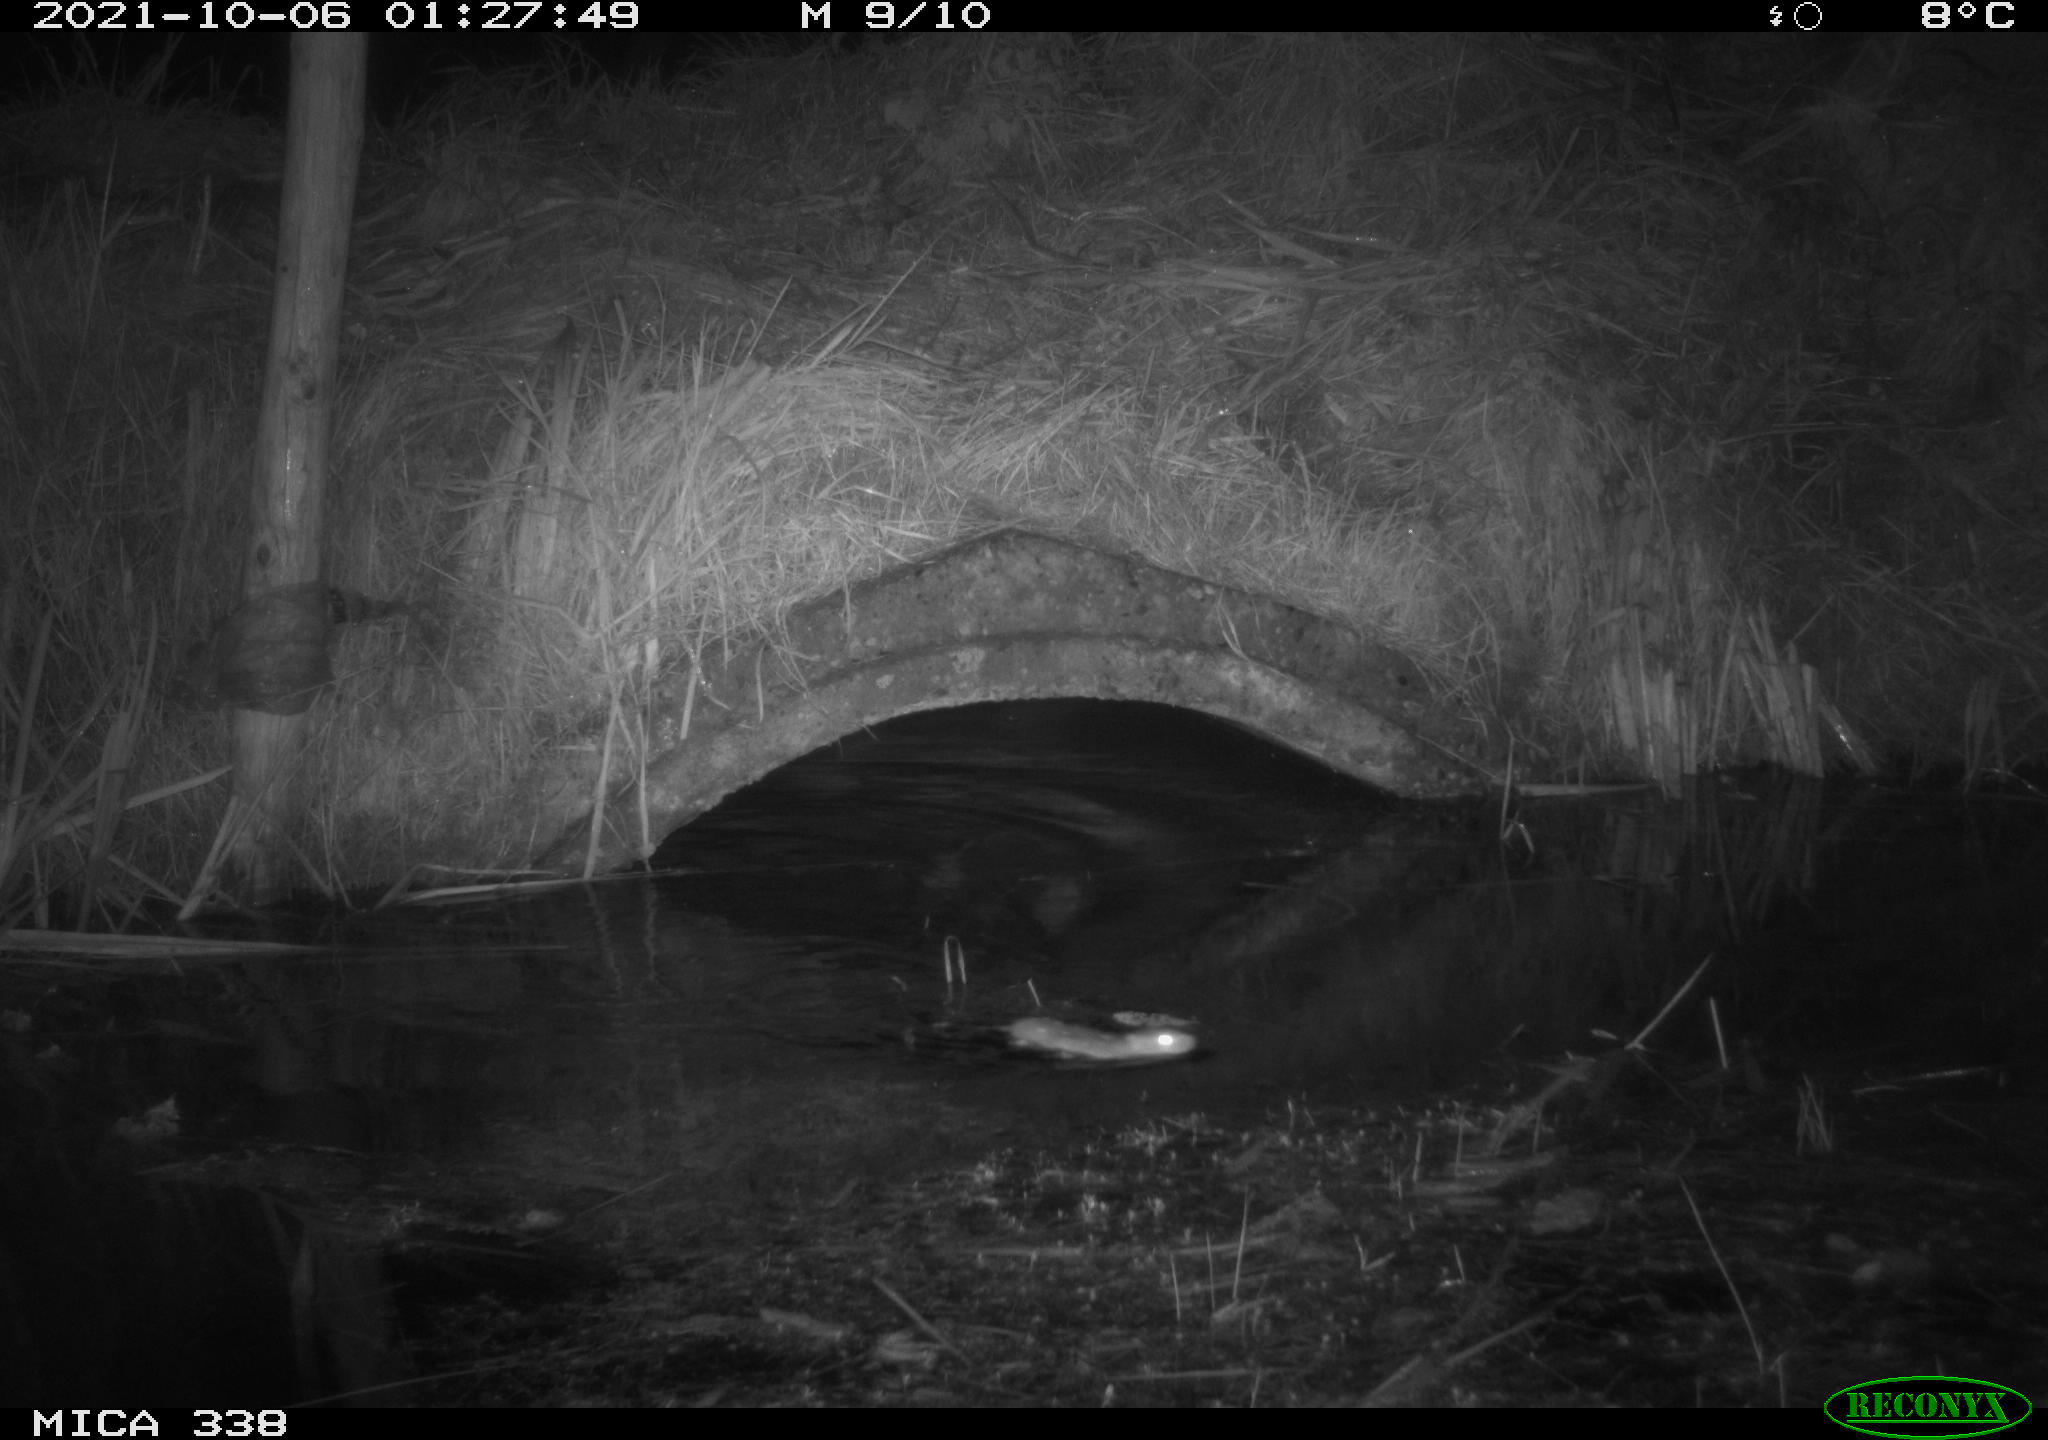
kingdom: Animalia
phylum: Chordata
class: Mammalia
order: Rodentia
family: Muridae
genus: Rattus
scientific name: Rattus norvegicus
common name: Brown rat
